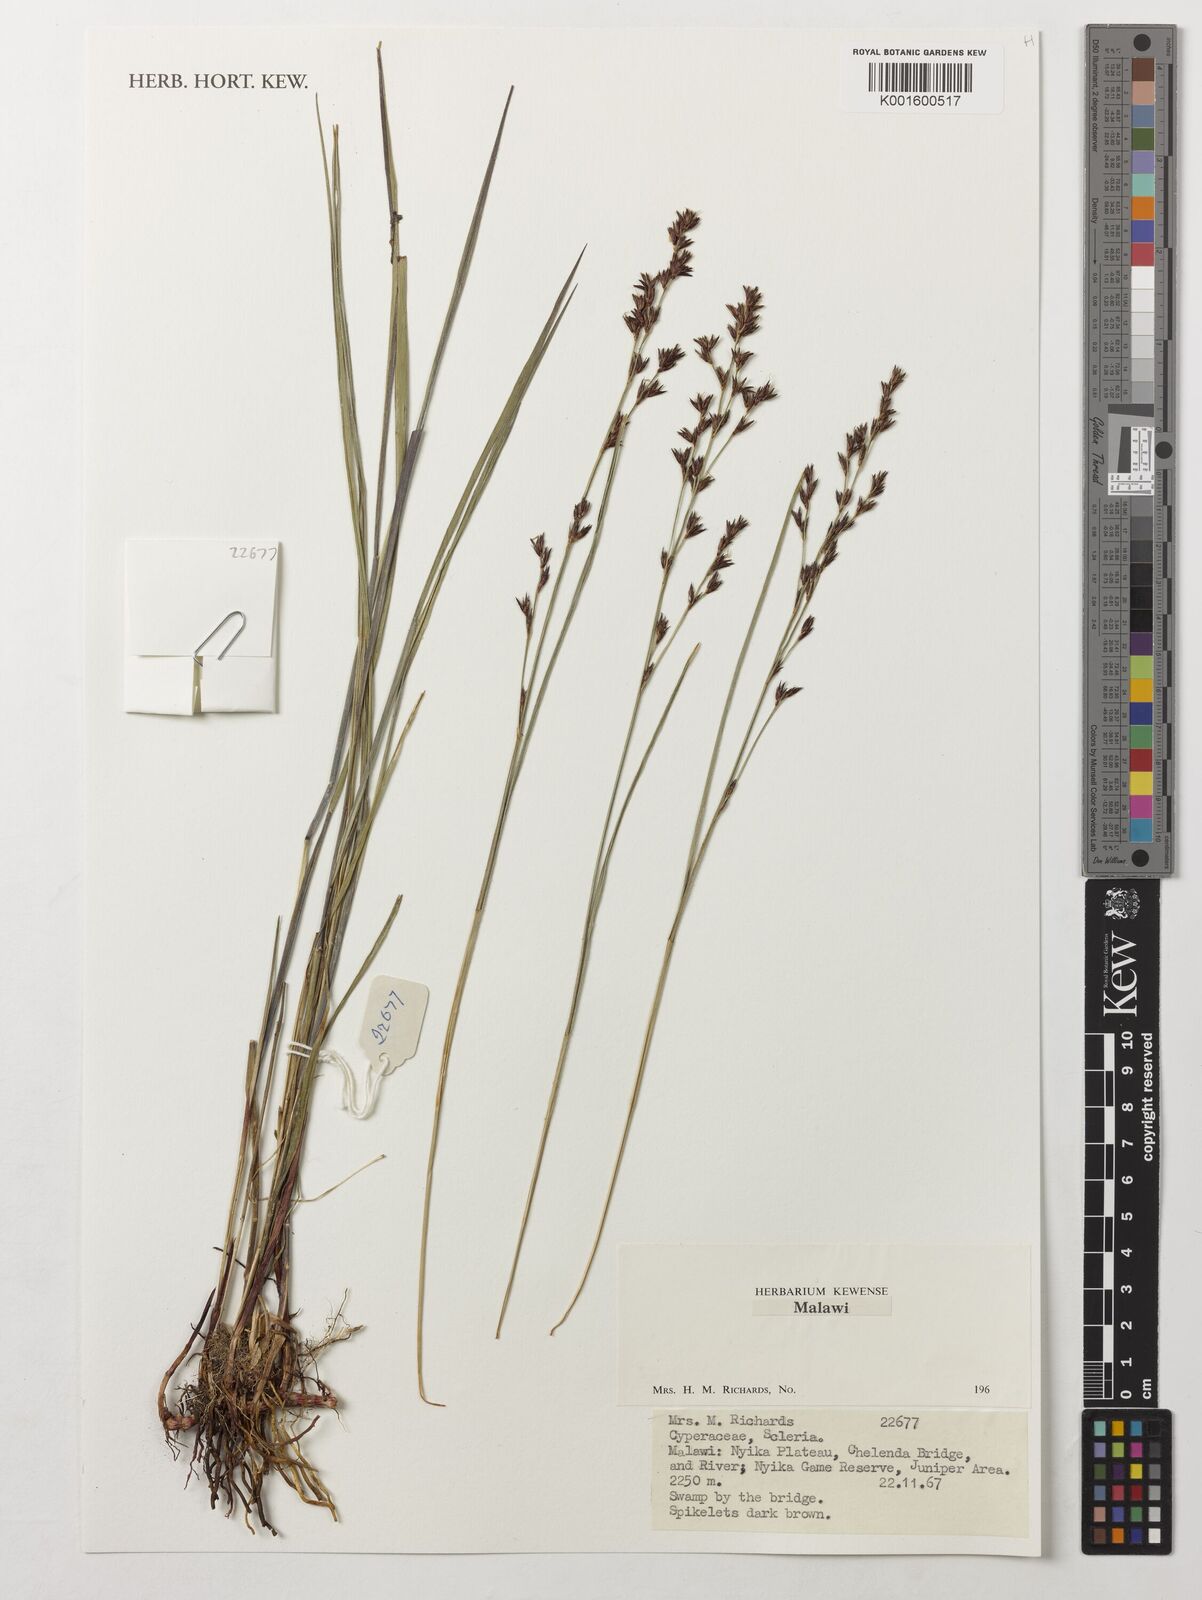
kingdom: Plantae
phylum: Tracheophyta
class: Liliopsida
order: Poales
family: Cyperaceae
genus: Scleria
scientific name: Scleria
